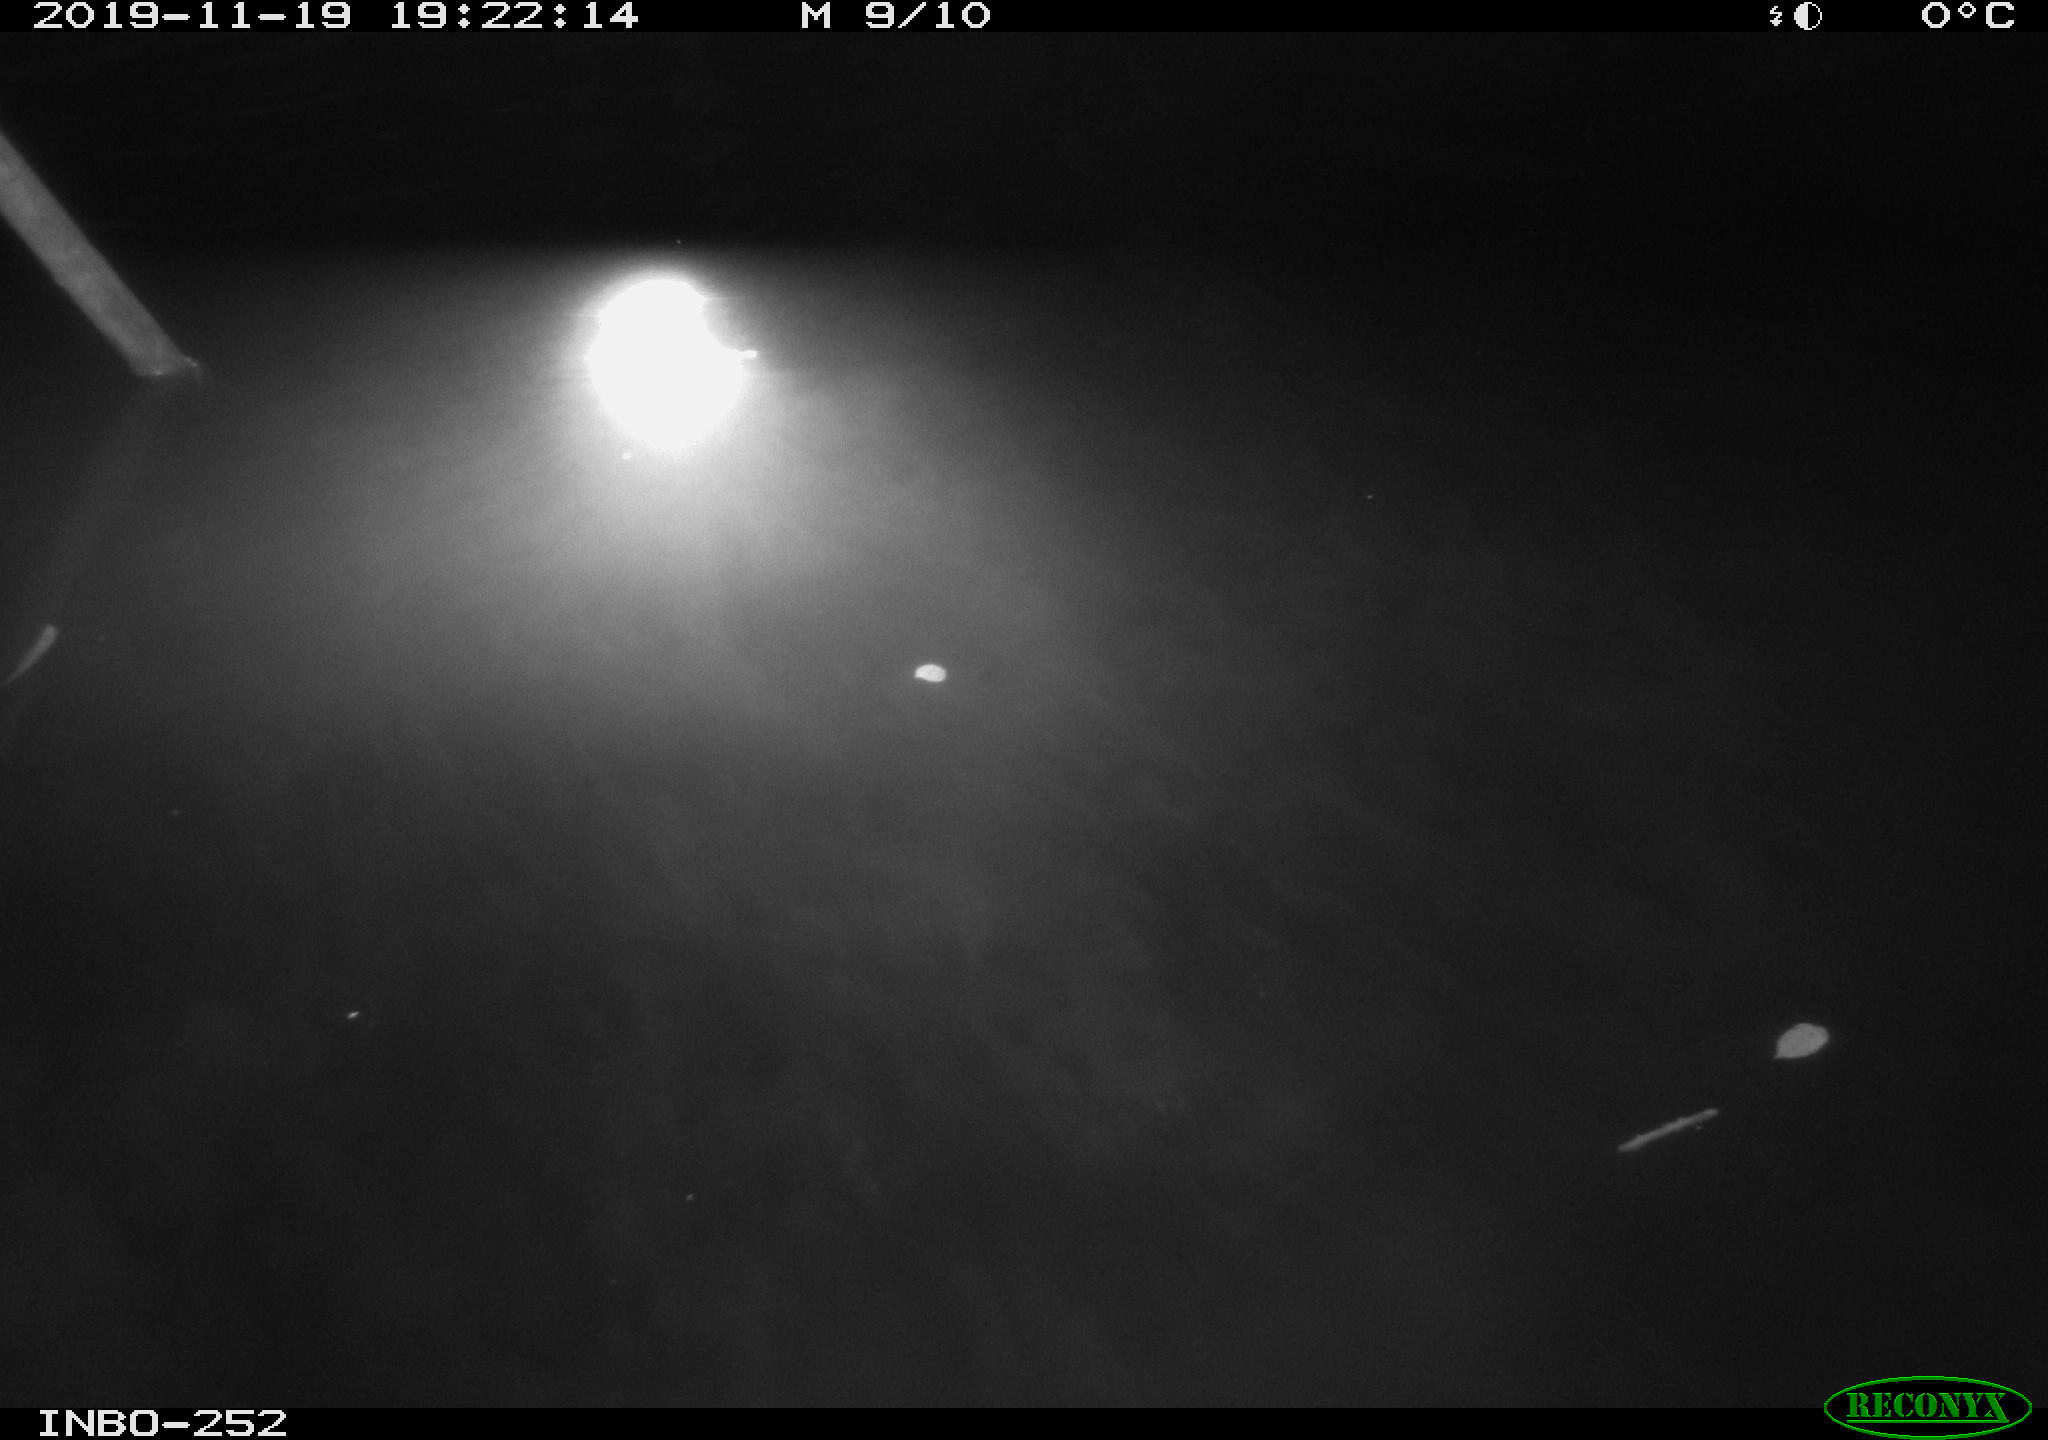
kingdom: Animalia
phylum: Chordata
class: Aves
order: Anseriformes
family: Anatidae
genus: Anas
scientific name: Anas platyrhynchos
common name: Mallard
